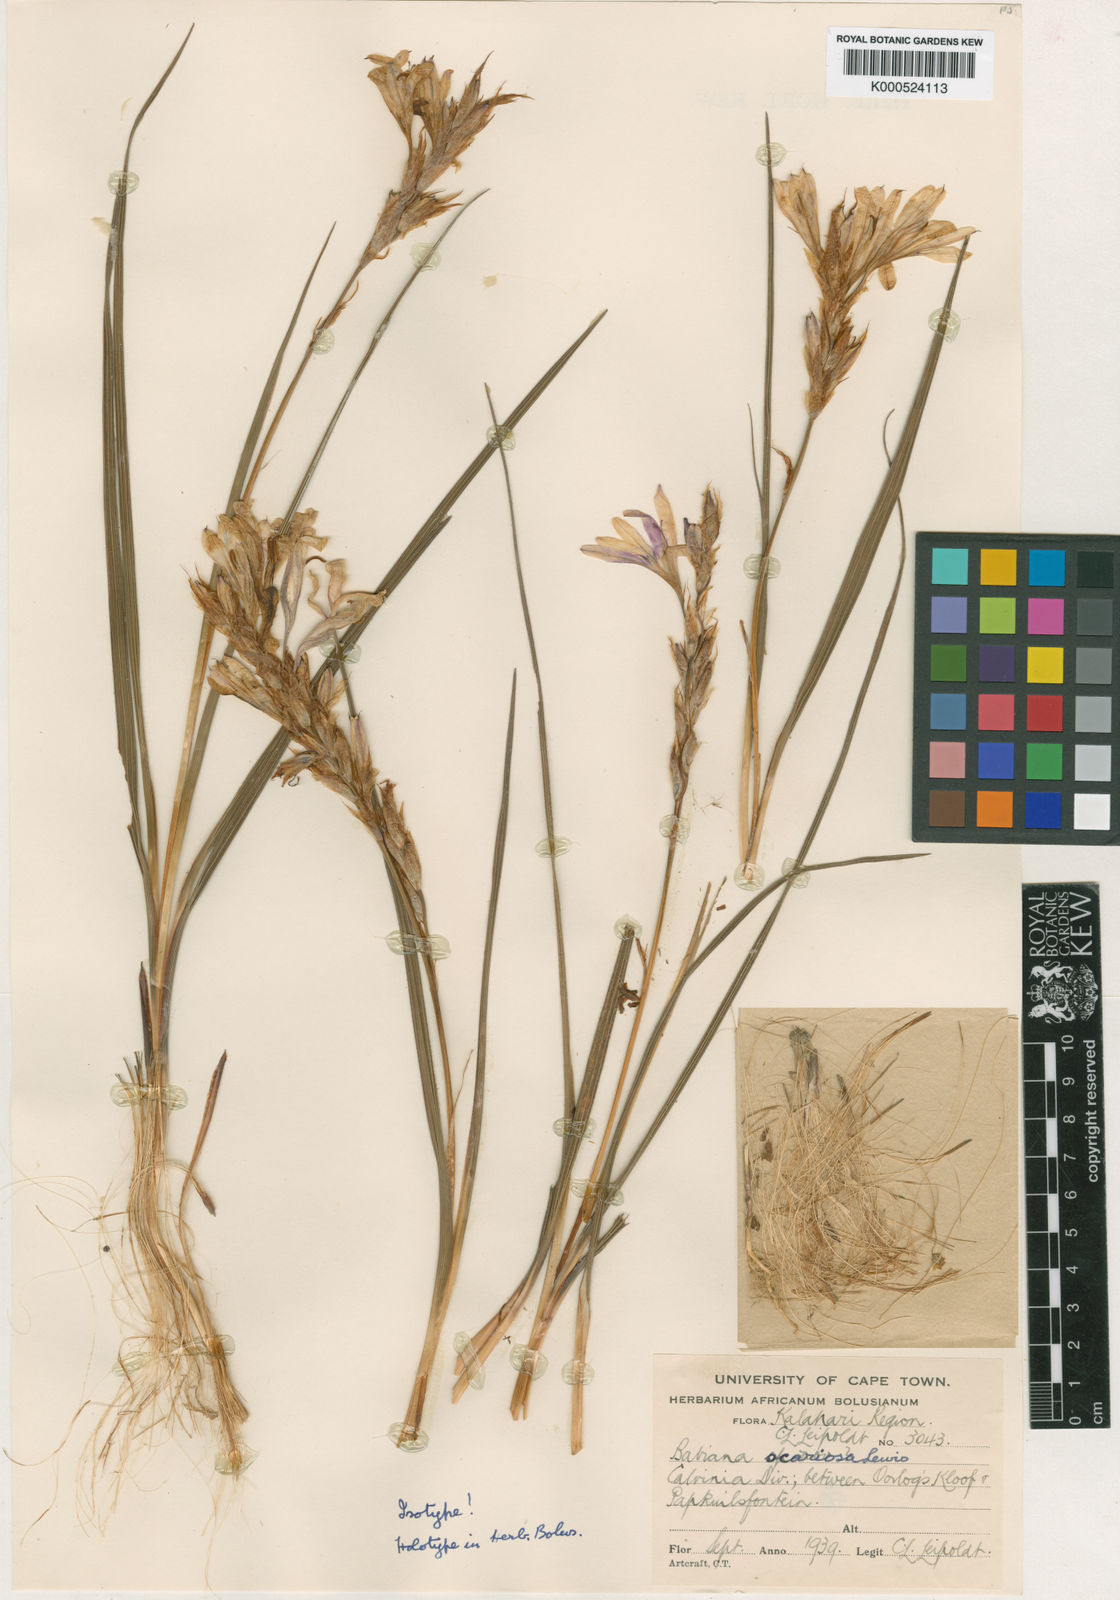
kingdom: Plantae
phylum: Tracheophyta
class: Liliopsida
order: Asparagales
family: Iridaceae
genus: Babiana
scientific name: Babiana scariosa
